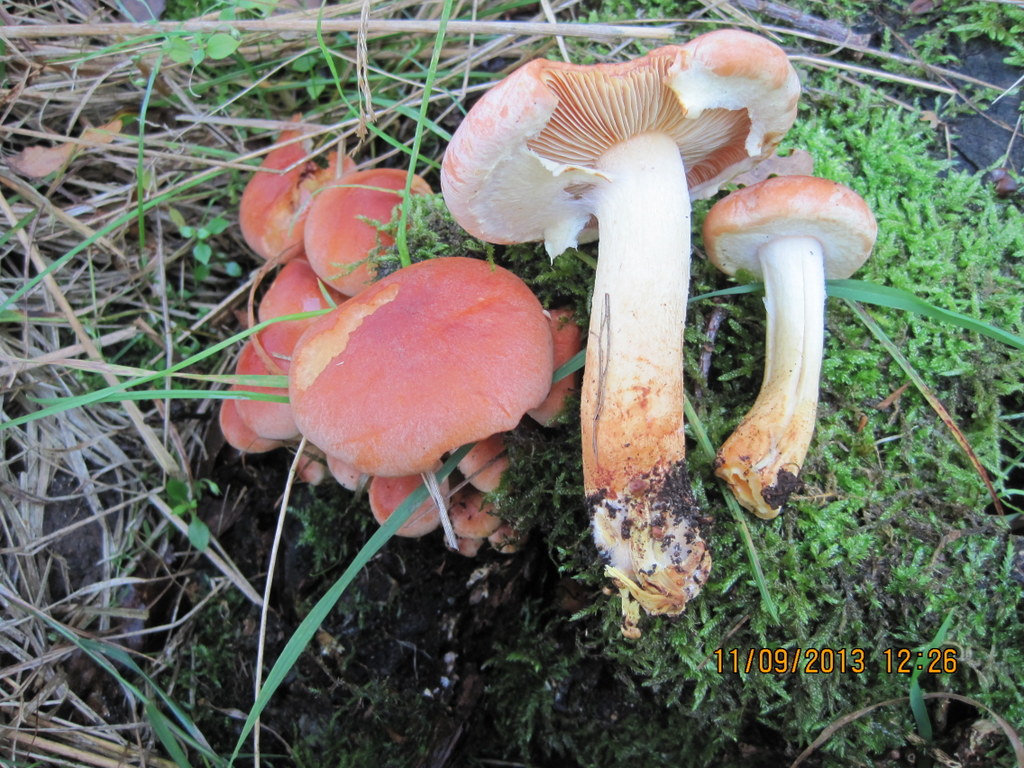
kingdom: Fungi
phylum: Basidiomycota
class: Agaricomycetes
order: Agaricales
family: Strophariaceae
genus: Hypholoma
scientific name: Hypholoma lateritium
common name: teglrød svovlhat
